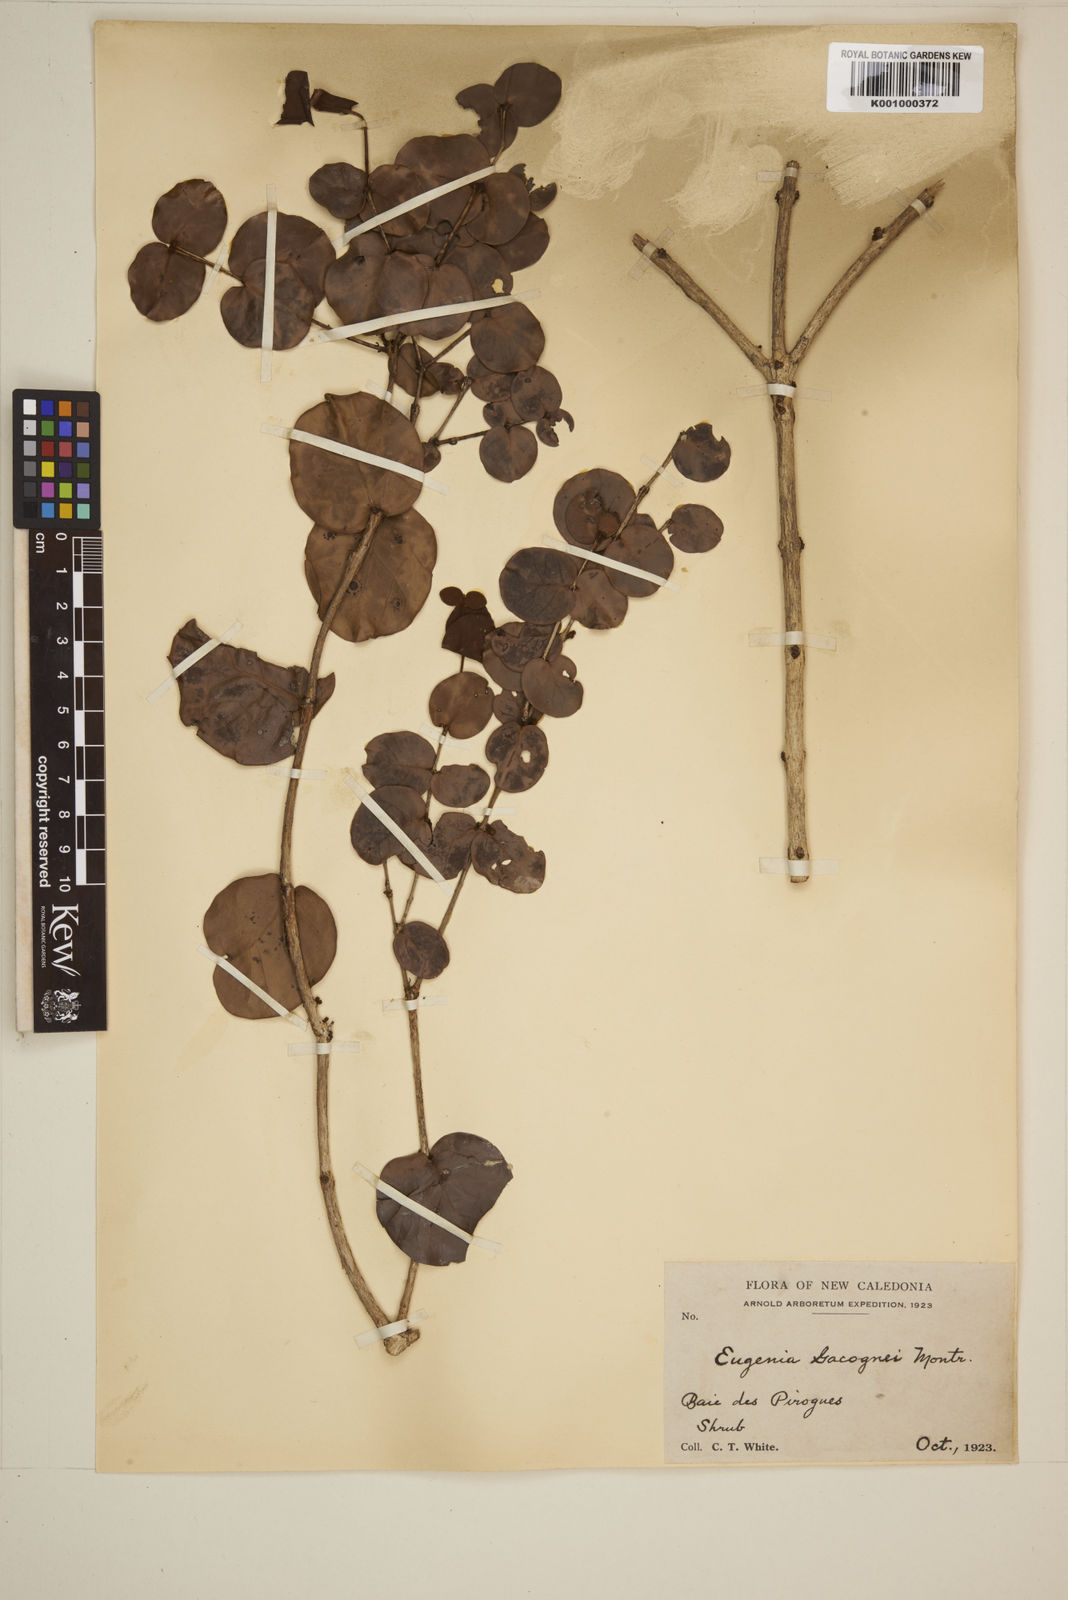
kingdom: Plantae
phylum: Tracheophyta
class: Magnoliopsida
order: Myrtales
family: Myrtaceae
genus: Eugenia
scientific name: Eugenia gacognei
